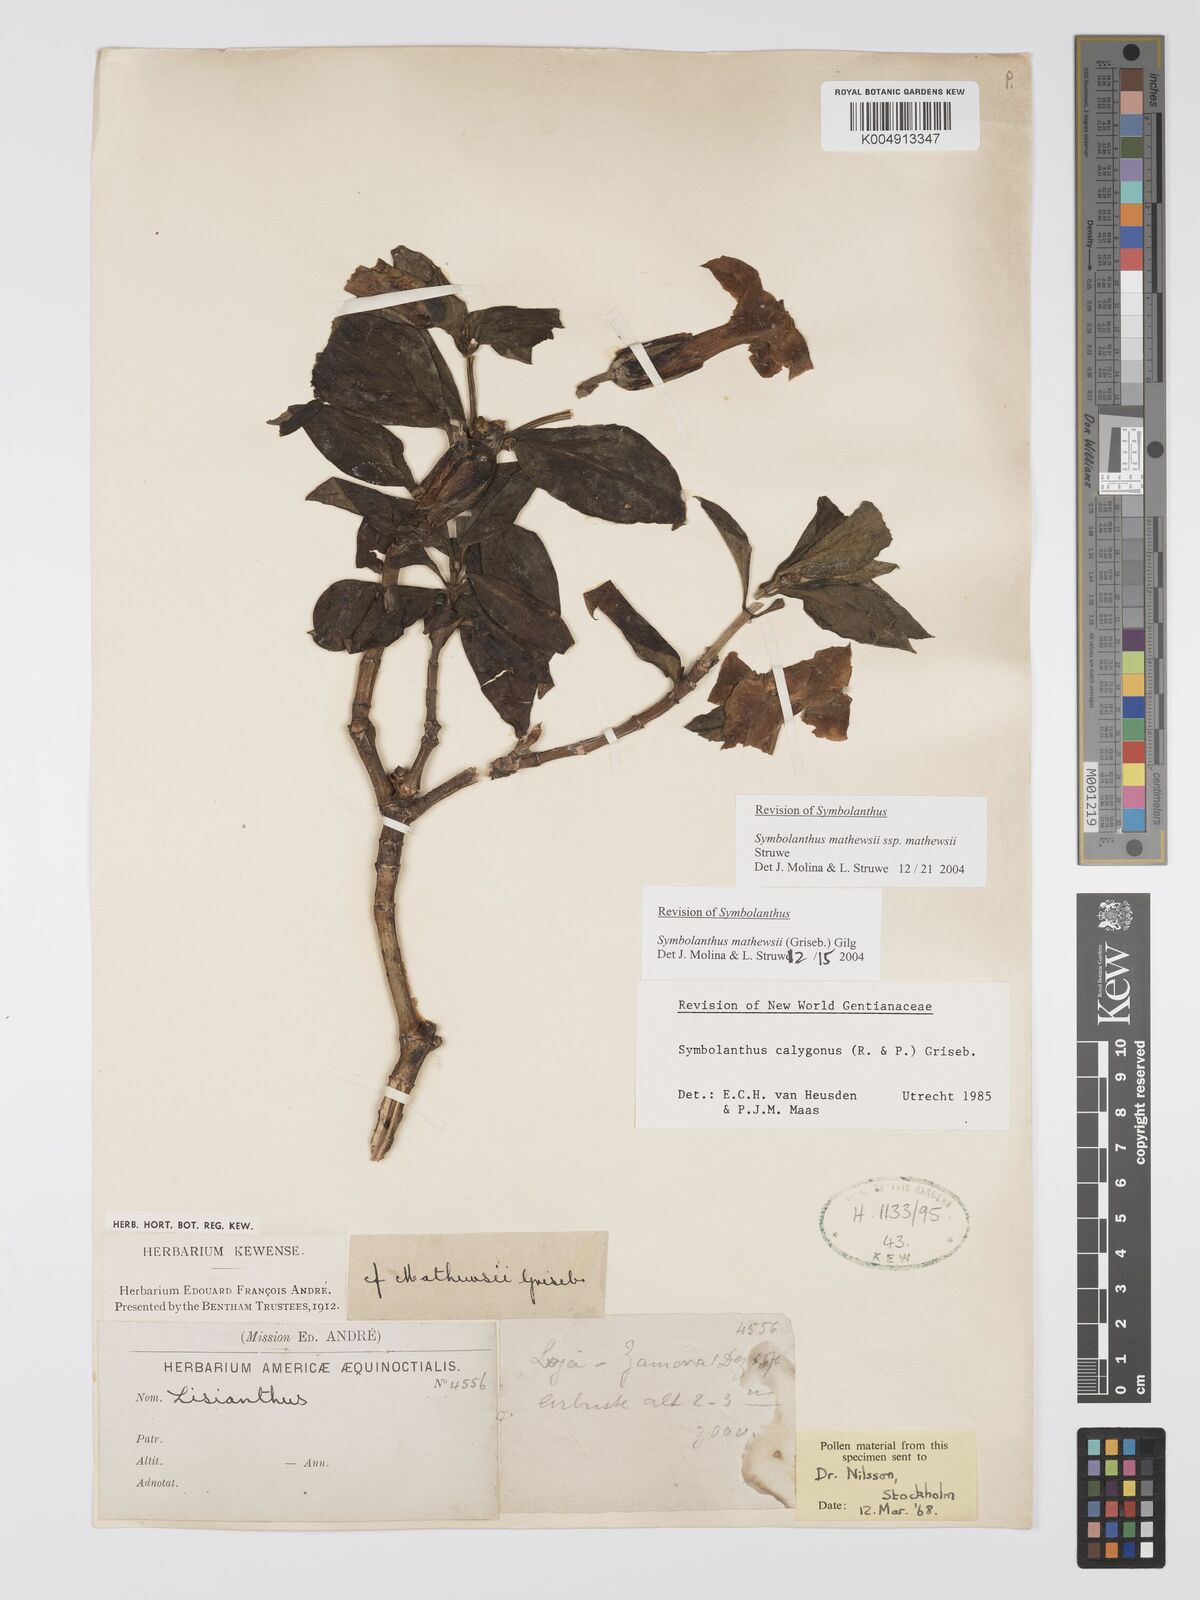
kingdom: Plantae
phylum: Tracheophyta
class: Magnoliopsida
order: Gentianales
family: Gentianaceae
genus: Symbolanthus
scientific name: Symbolanthus mathewsii
